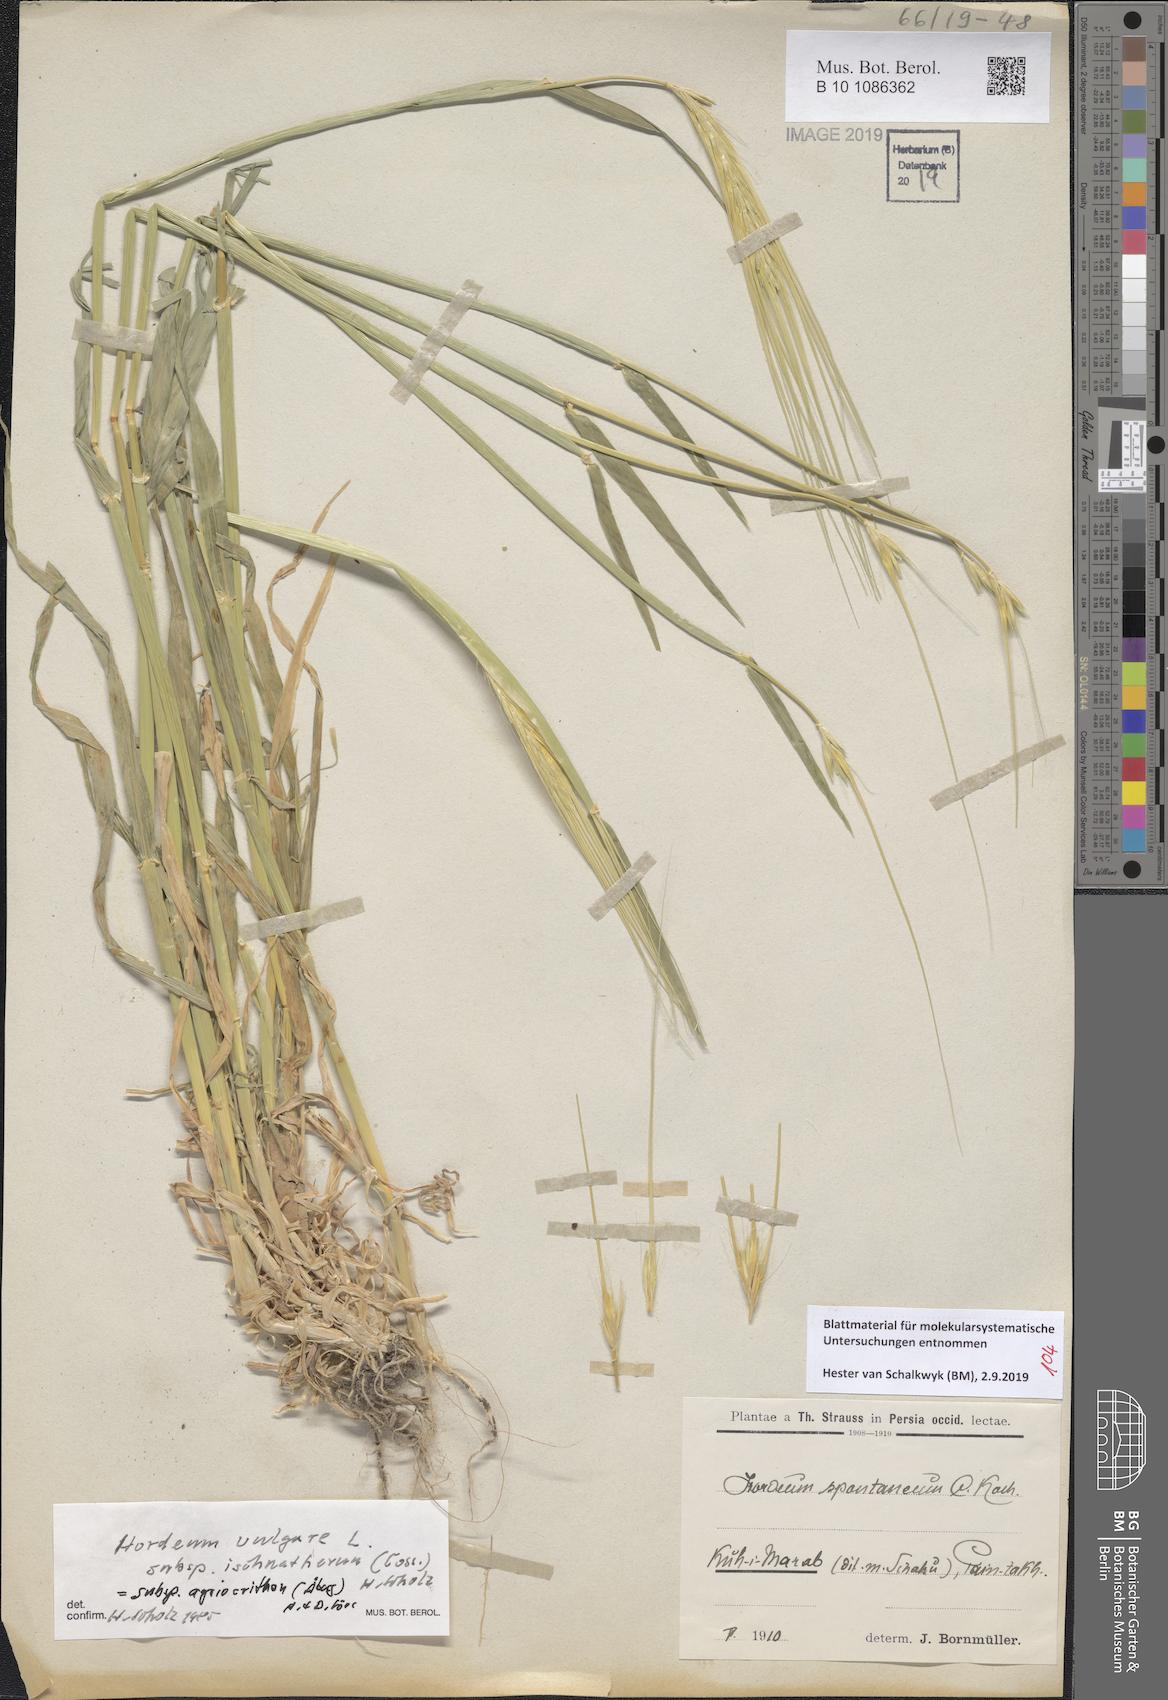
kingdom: Plantae
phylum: Tracheophyta
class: Liliopsida
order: Poales
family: Poaceae
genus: Hordeum
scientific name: Hordeum spontaneum
